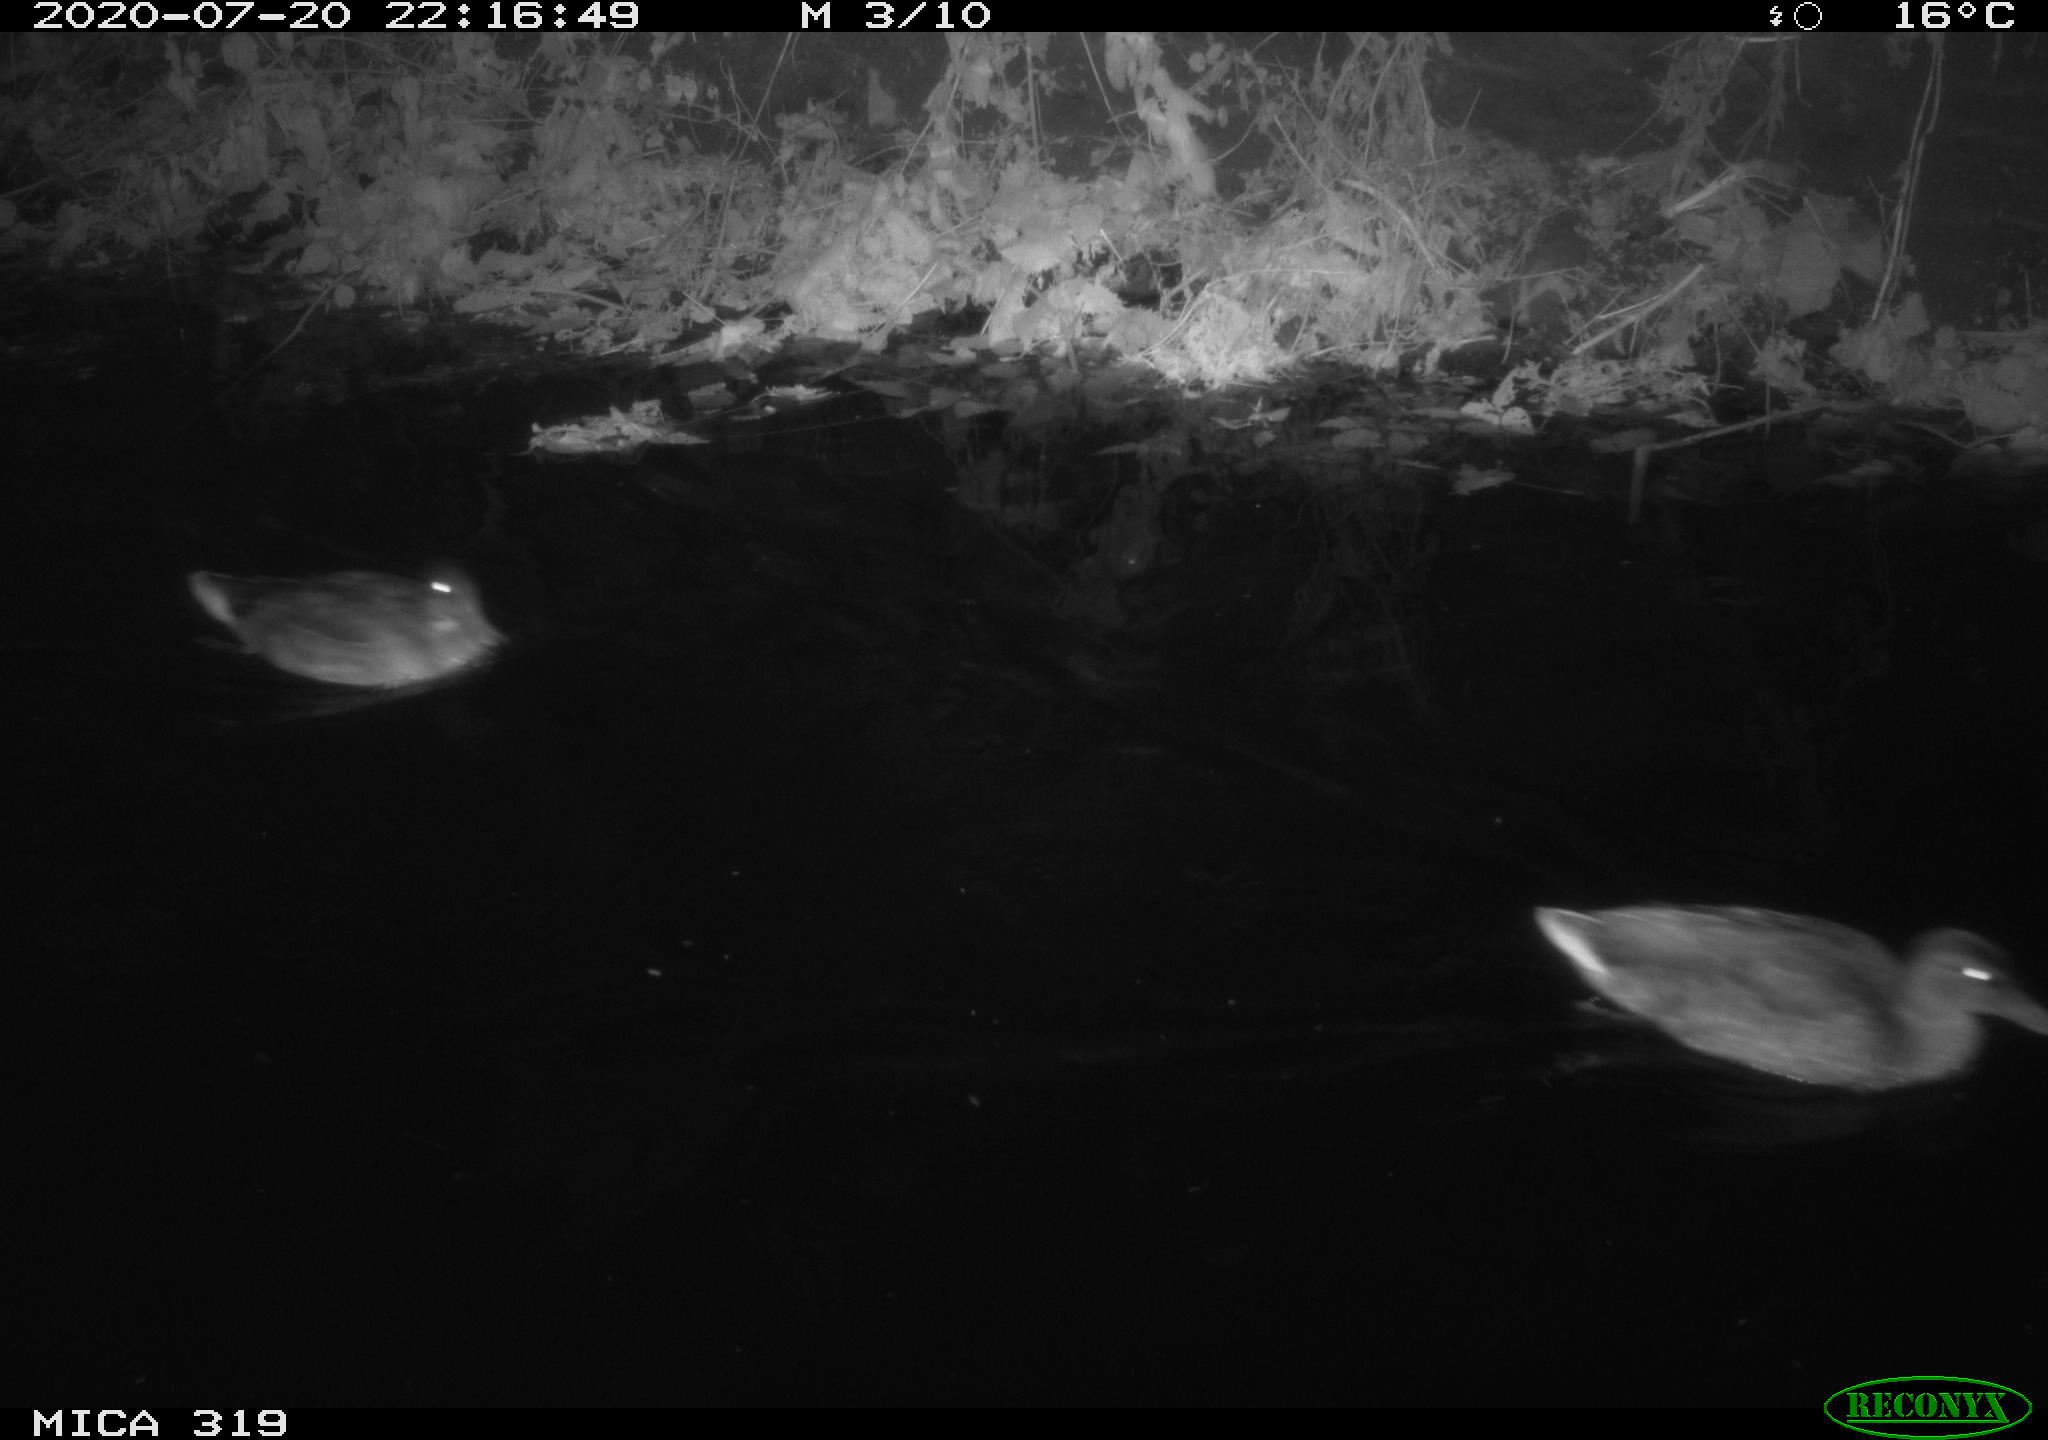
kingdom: Animalia
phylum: Chordata
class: Aves
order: Anseriformes
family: Anatidae
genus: Anas
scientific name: Anas platyrhynchos
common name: Mallard
